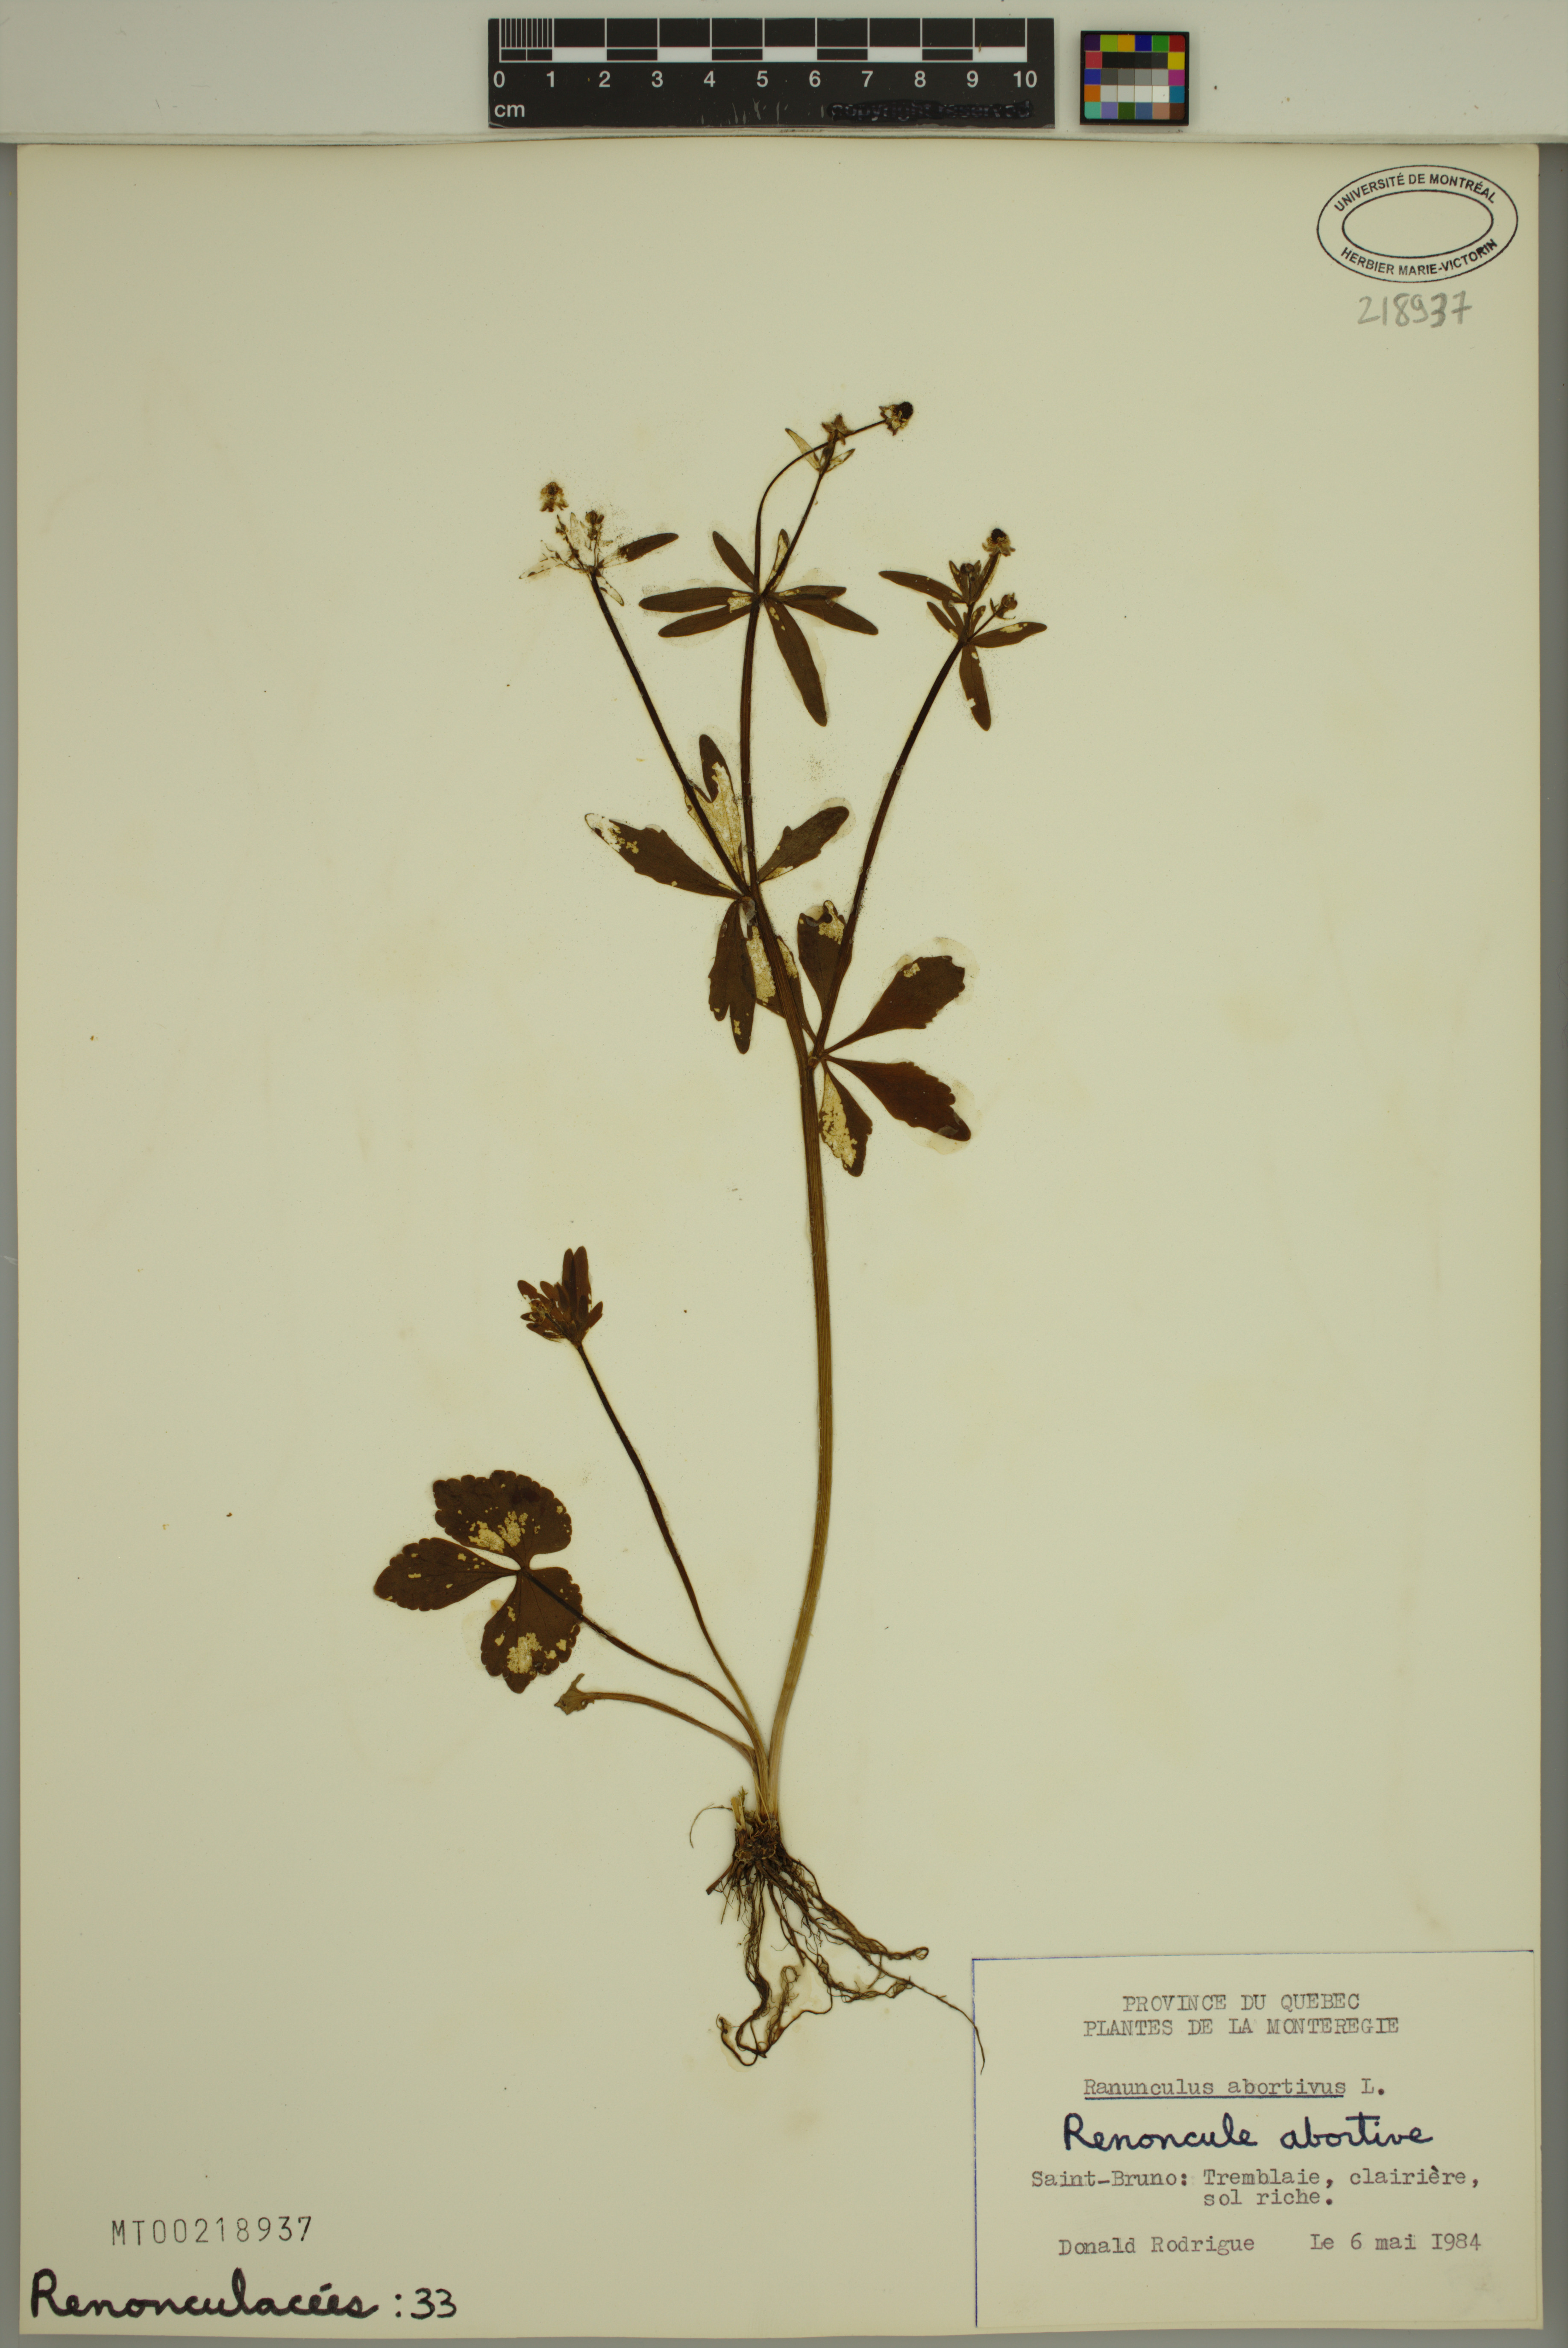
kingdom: Plantae
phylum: Tracheophyta
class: Magnoliopsida
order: Ranunculales
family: Ranunculaceae
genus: Ranunculus
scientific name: Ranunculus abortivus
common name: Early wood buttercup
